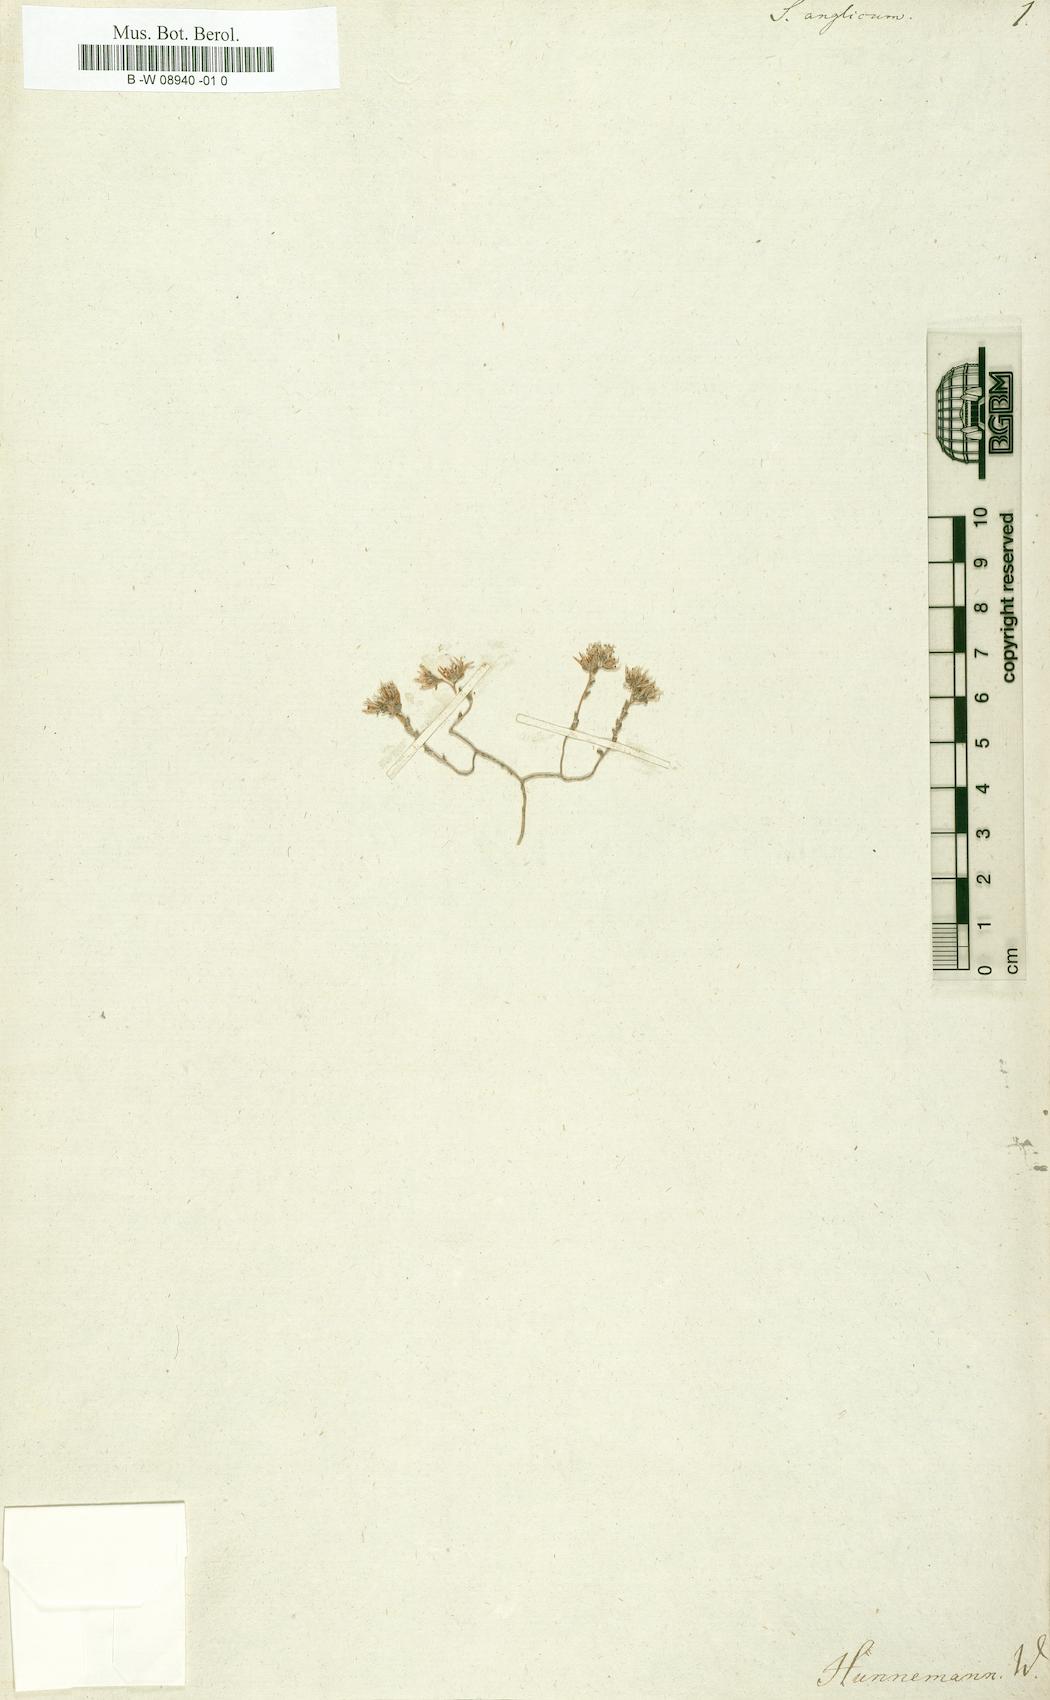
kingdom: Plantae
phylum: Tracheophyta
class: Magnoliopsida
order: Saxifragales
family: Crassulaceae
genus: Sedum
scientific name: Sedum anglicum
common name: English stonecrop
